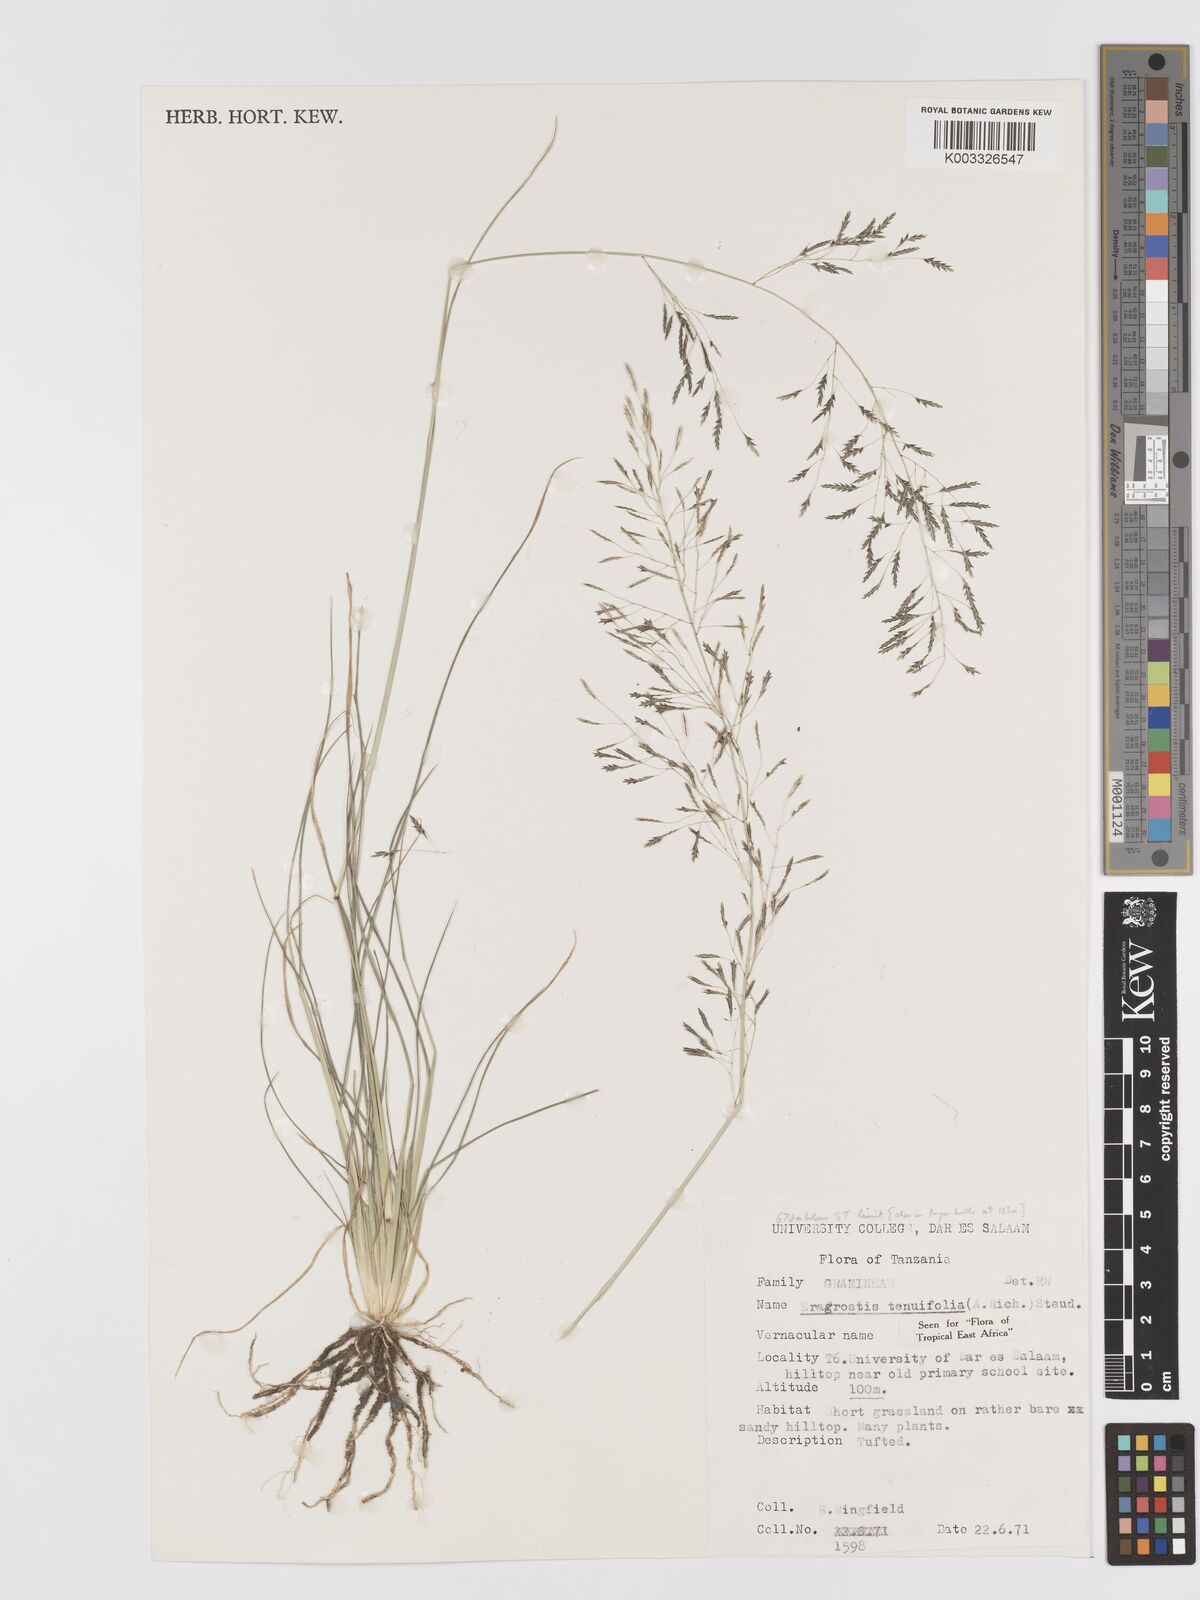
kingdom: Plantae
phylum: Tracheophyta
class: Liliopsida
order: Poales
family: Poaceae
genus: Eragrostis
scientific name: Eragrostis tenuifolia
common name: Elastic grass
